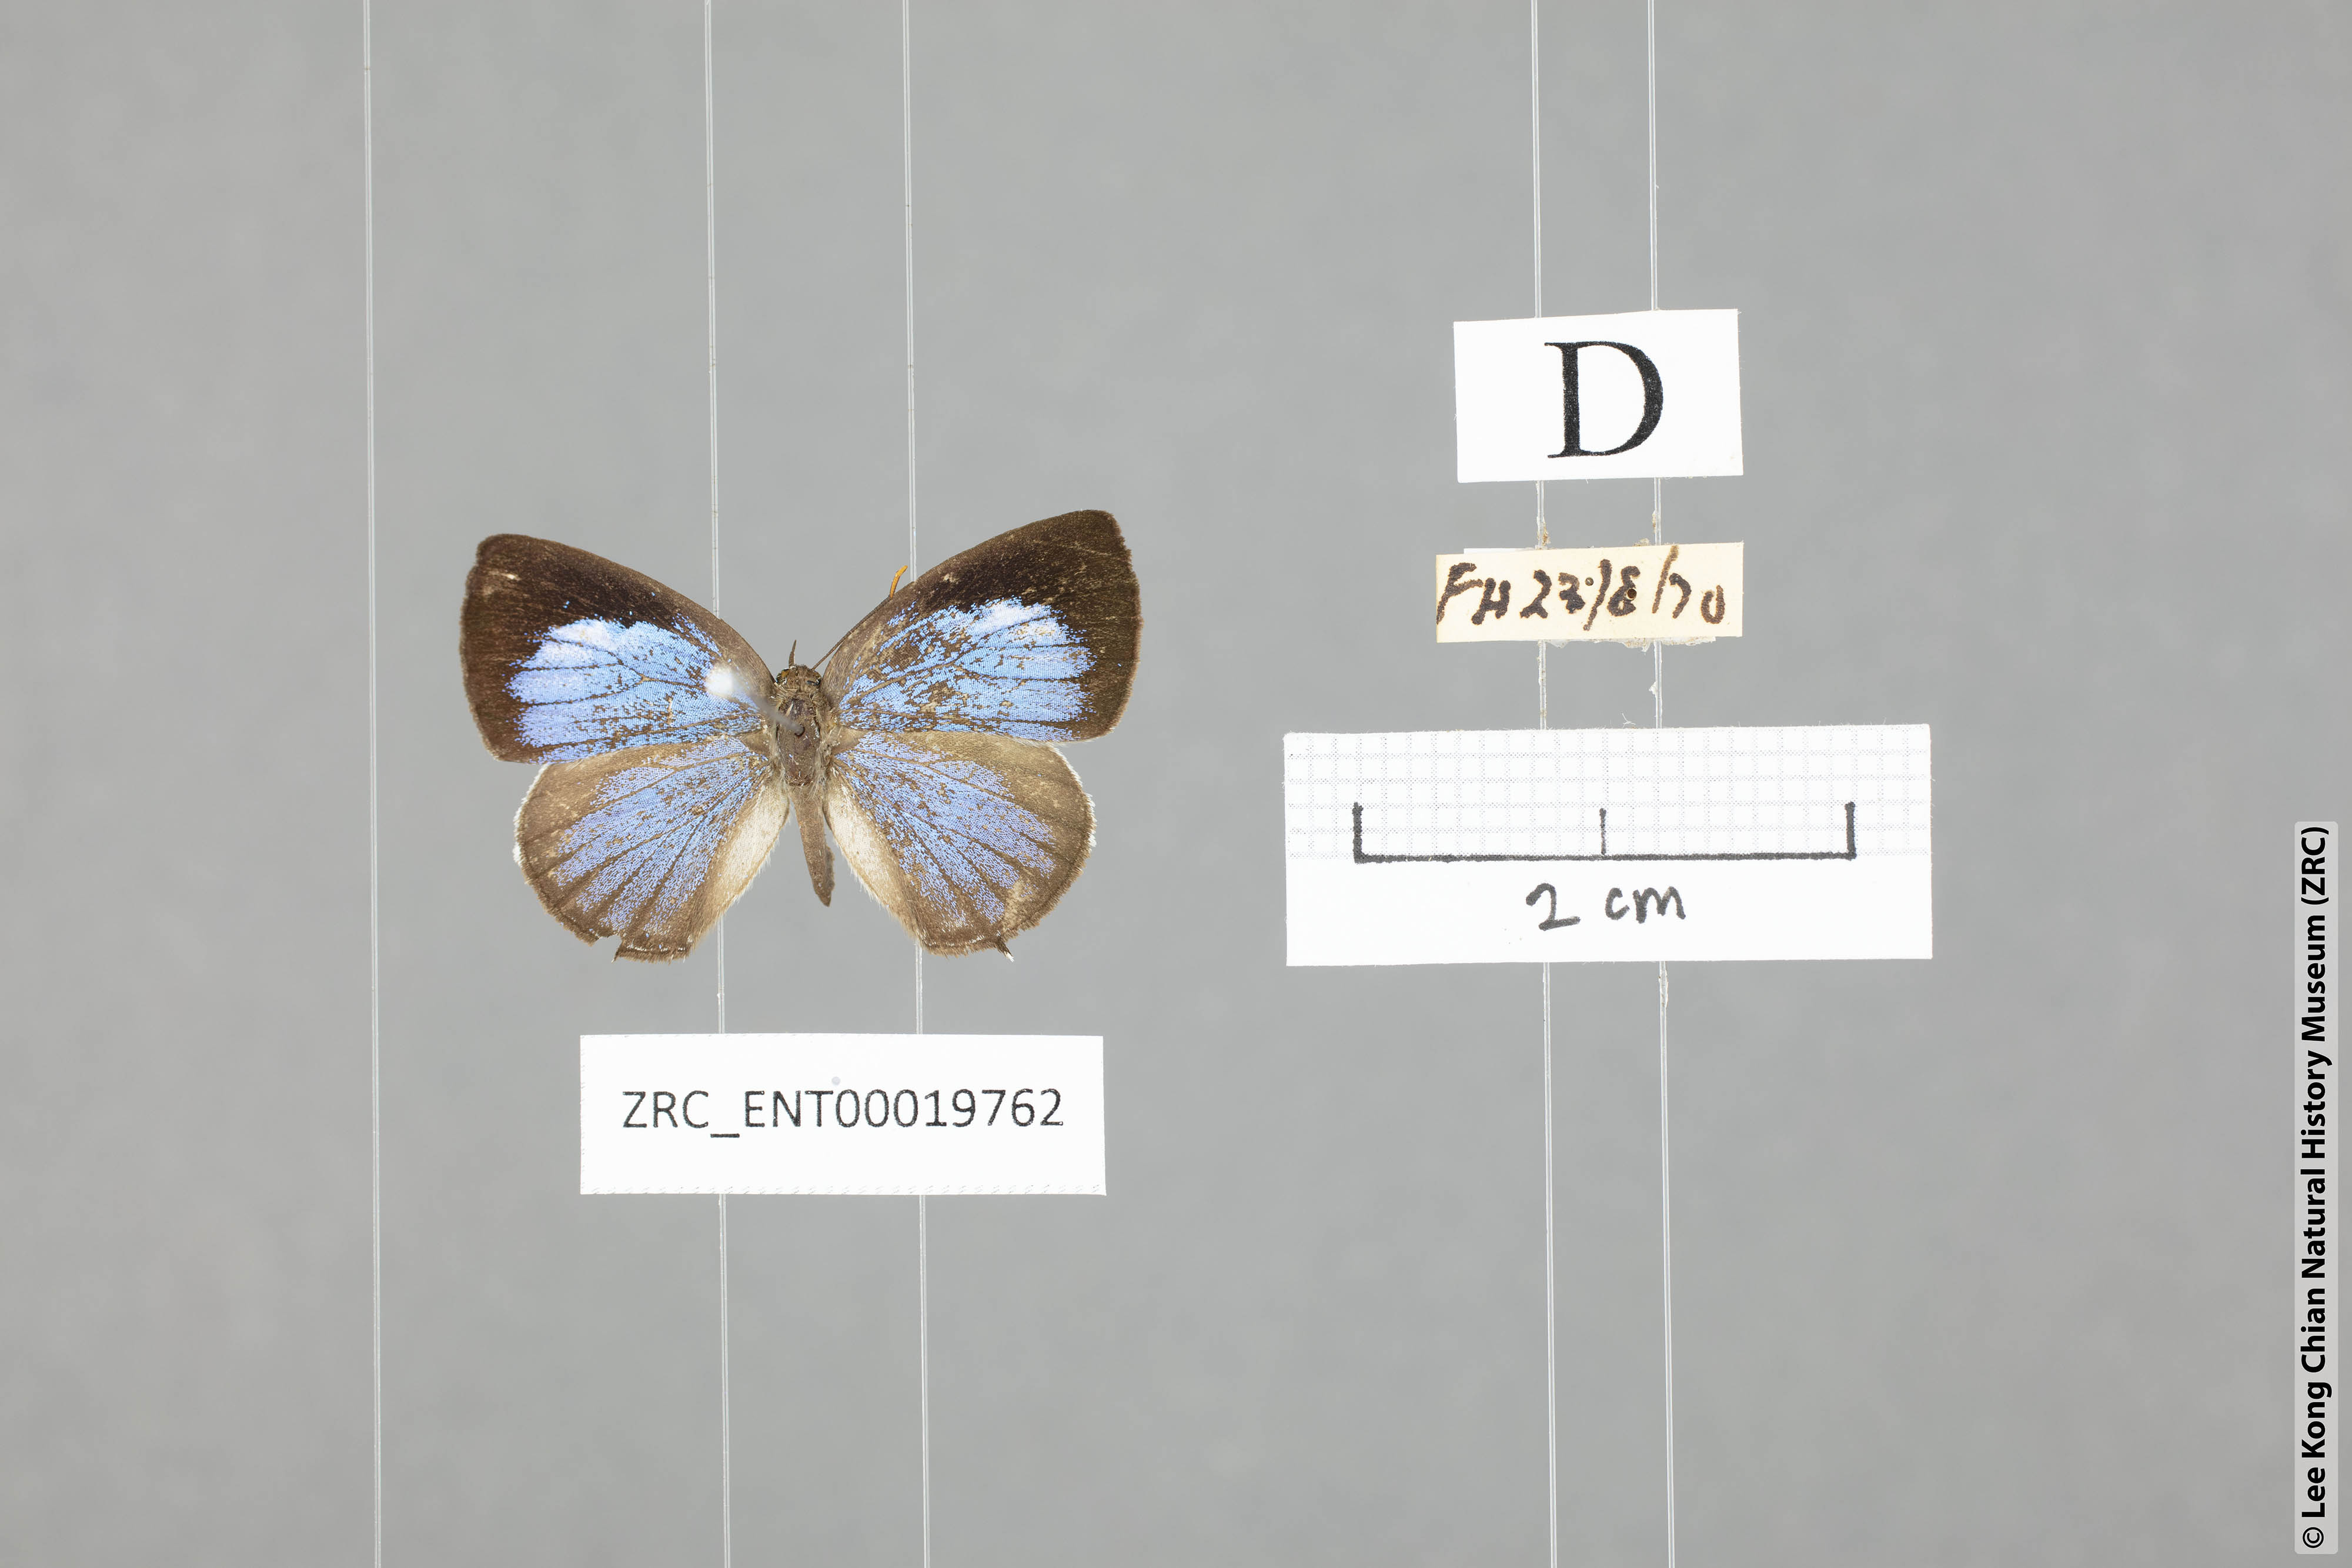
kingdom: Animalia
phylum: Arthropoda
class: Insecta
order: Lepidoptera
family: Lycaenidae
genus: Arhopala
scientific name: Arhopala paraganesa
